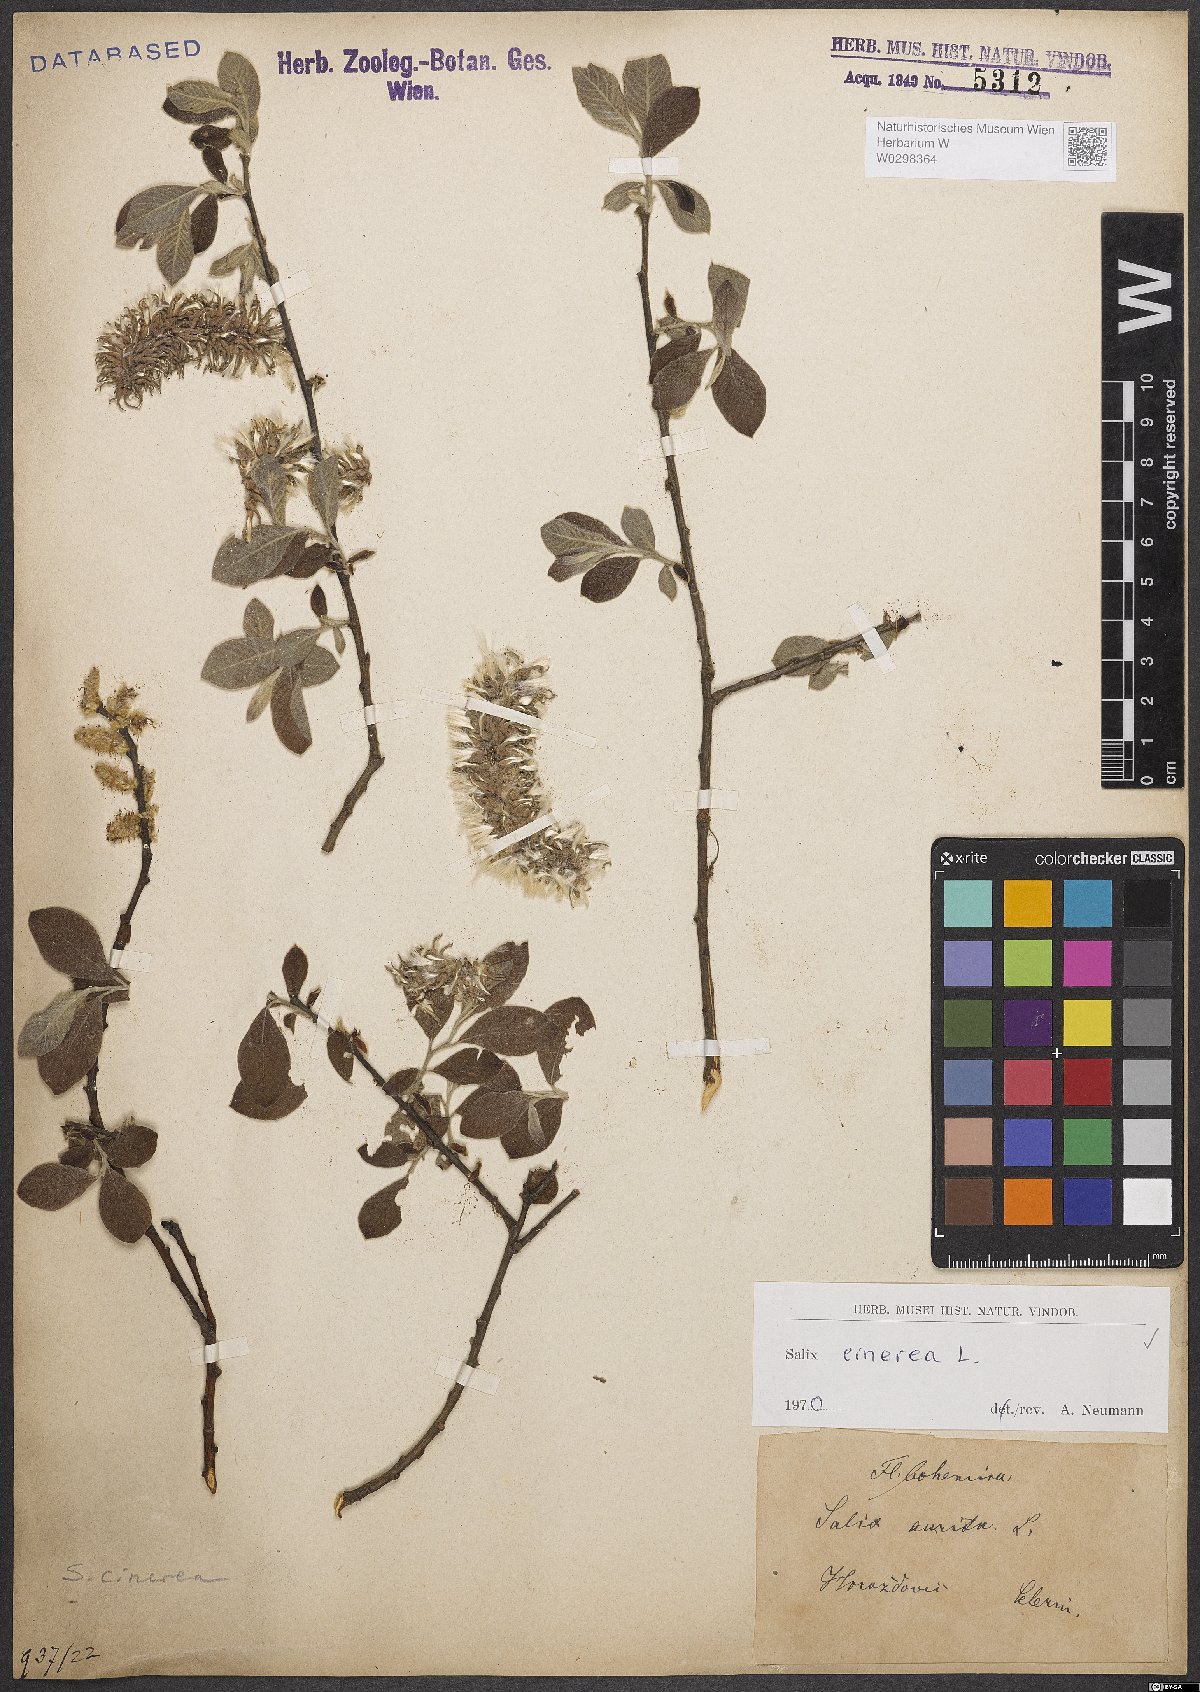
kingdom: Plantae
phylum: Tracheophyta
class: Magnoliopsida
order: Malpighiales
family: Salicaceae
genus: Salix
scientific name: Salix cinerea
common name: Common sallow
